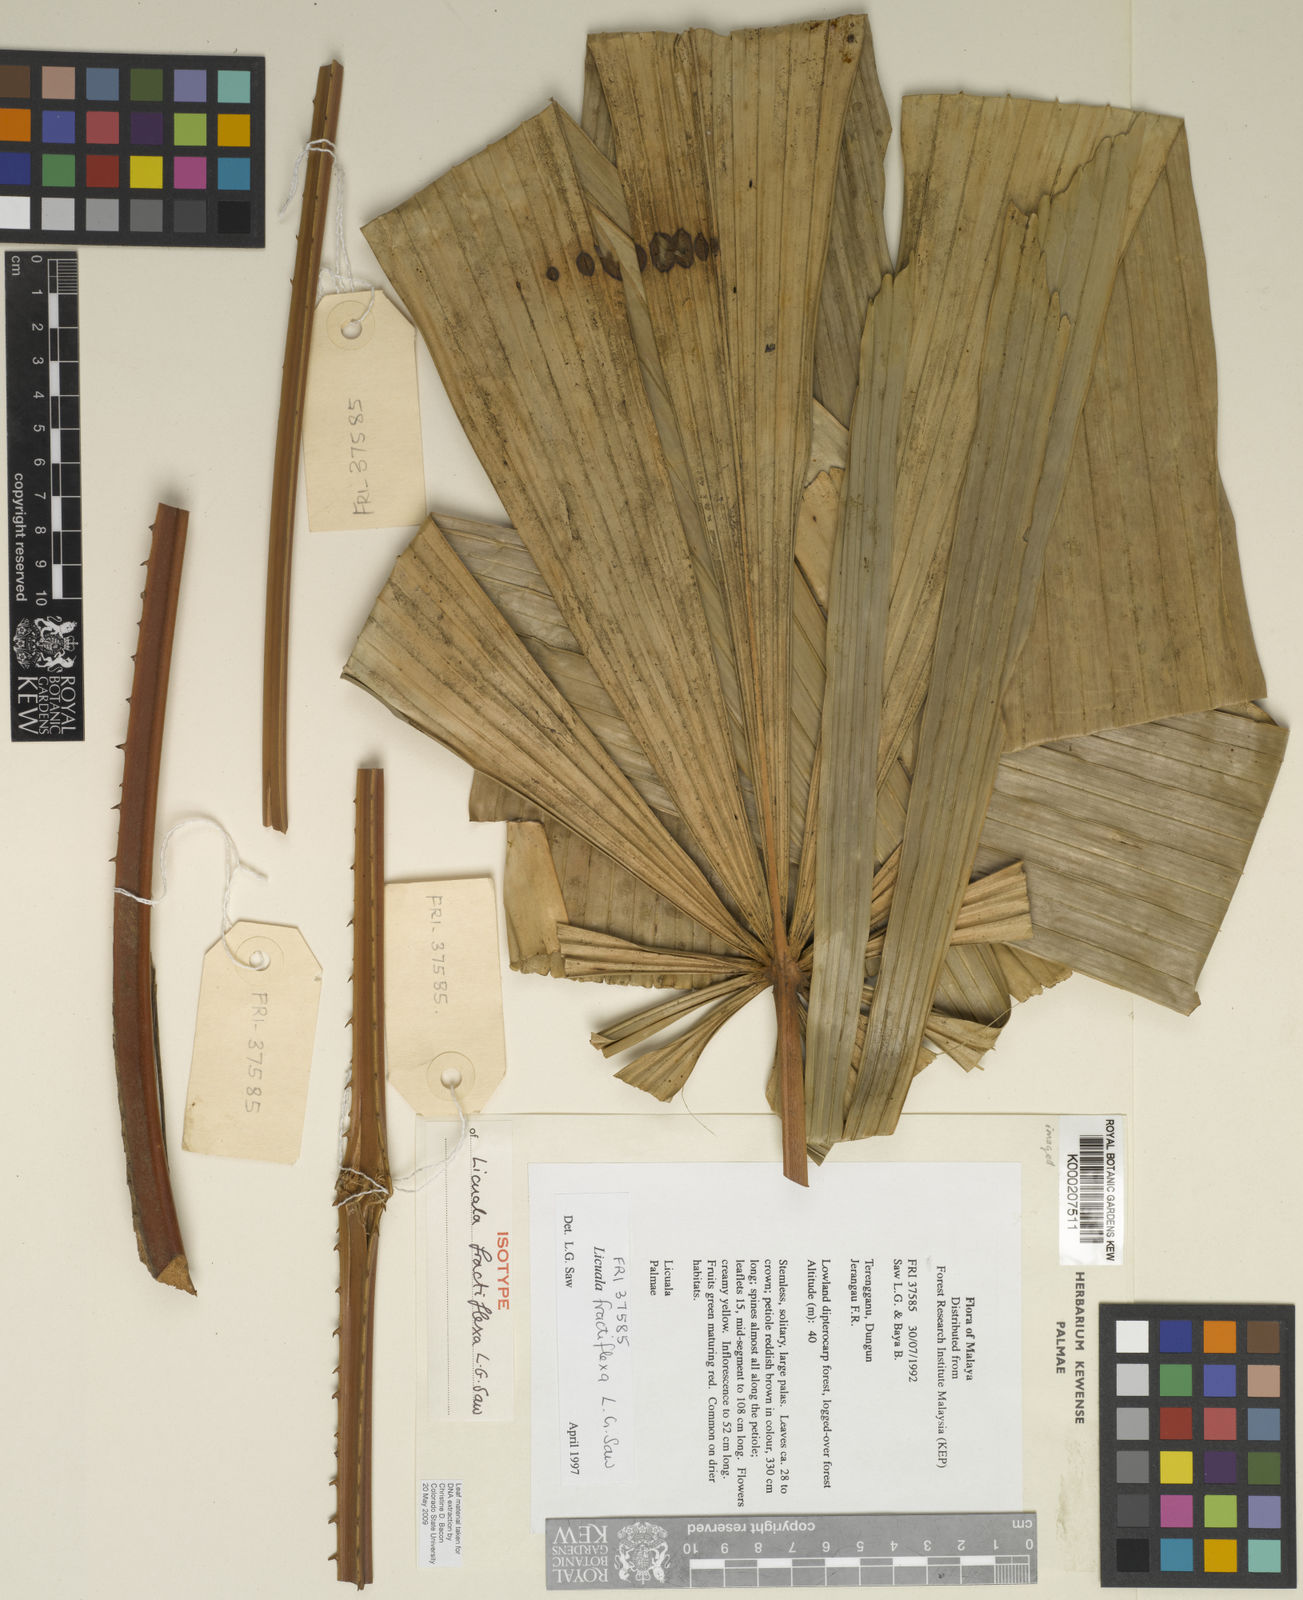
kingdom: Plantae
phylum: Tracheophyta
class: Liliopsida
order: Arecales
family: Arecaceae
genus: Licuala
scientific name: Licuala fractiflexa
